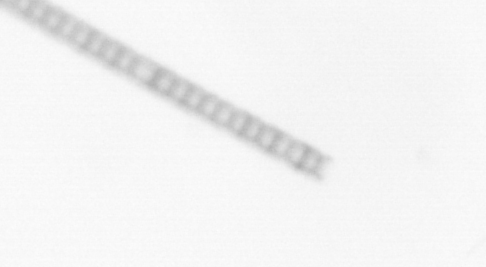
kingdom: Chromista
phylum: Ochrophyta
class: Bacillariophyceae
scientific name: Bacillariophyceae
